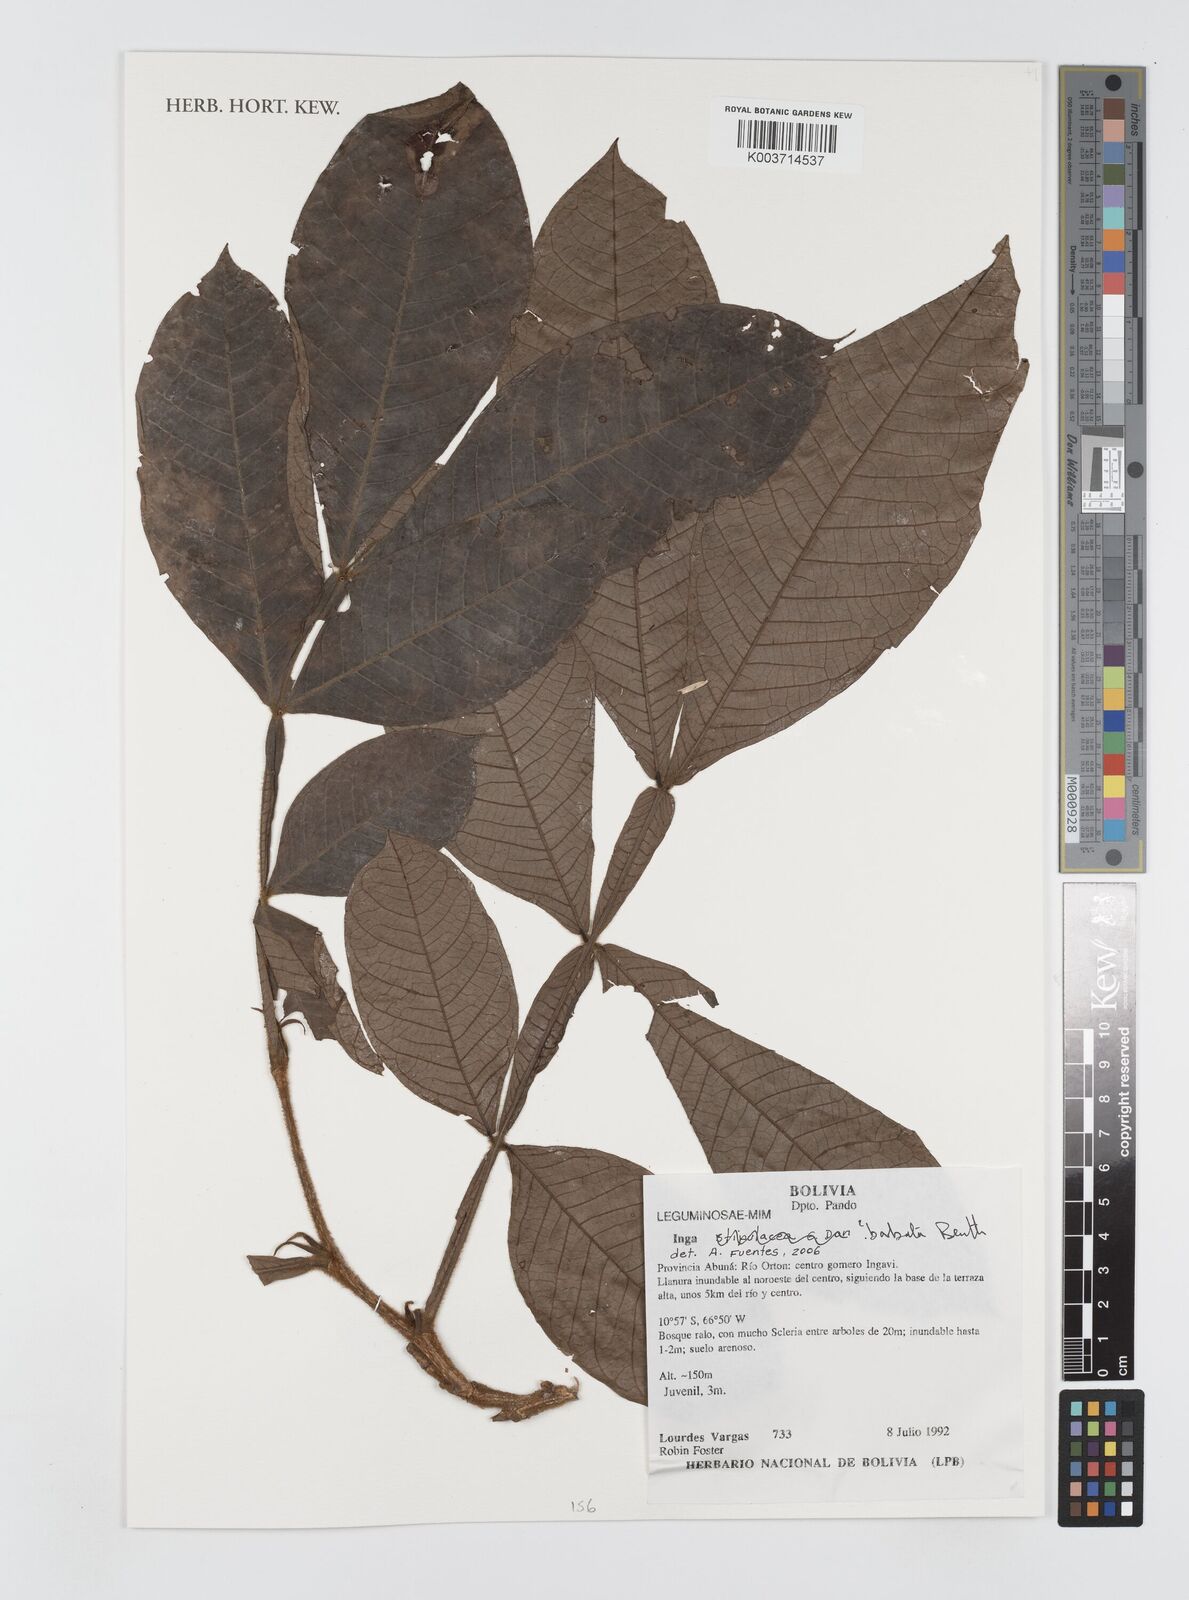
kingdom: Plantae
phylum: Tracheophyta
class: Magnoliopsida
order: Fabales
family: Fabaceae
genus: Inga
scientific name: Inga barbata
